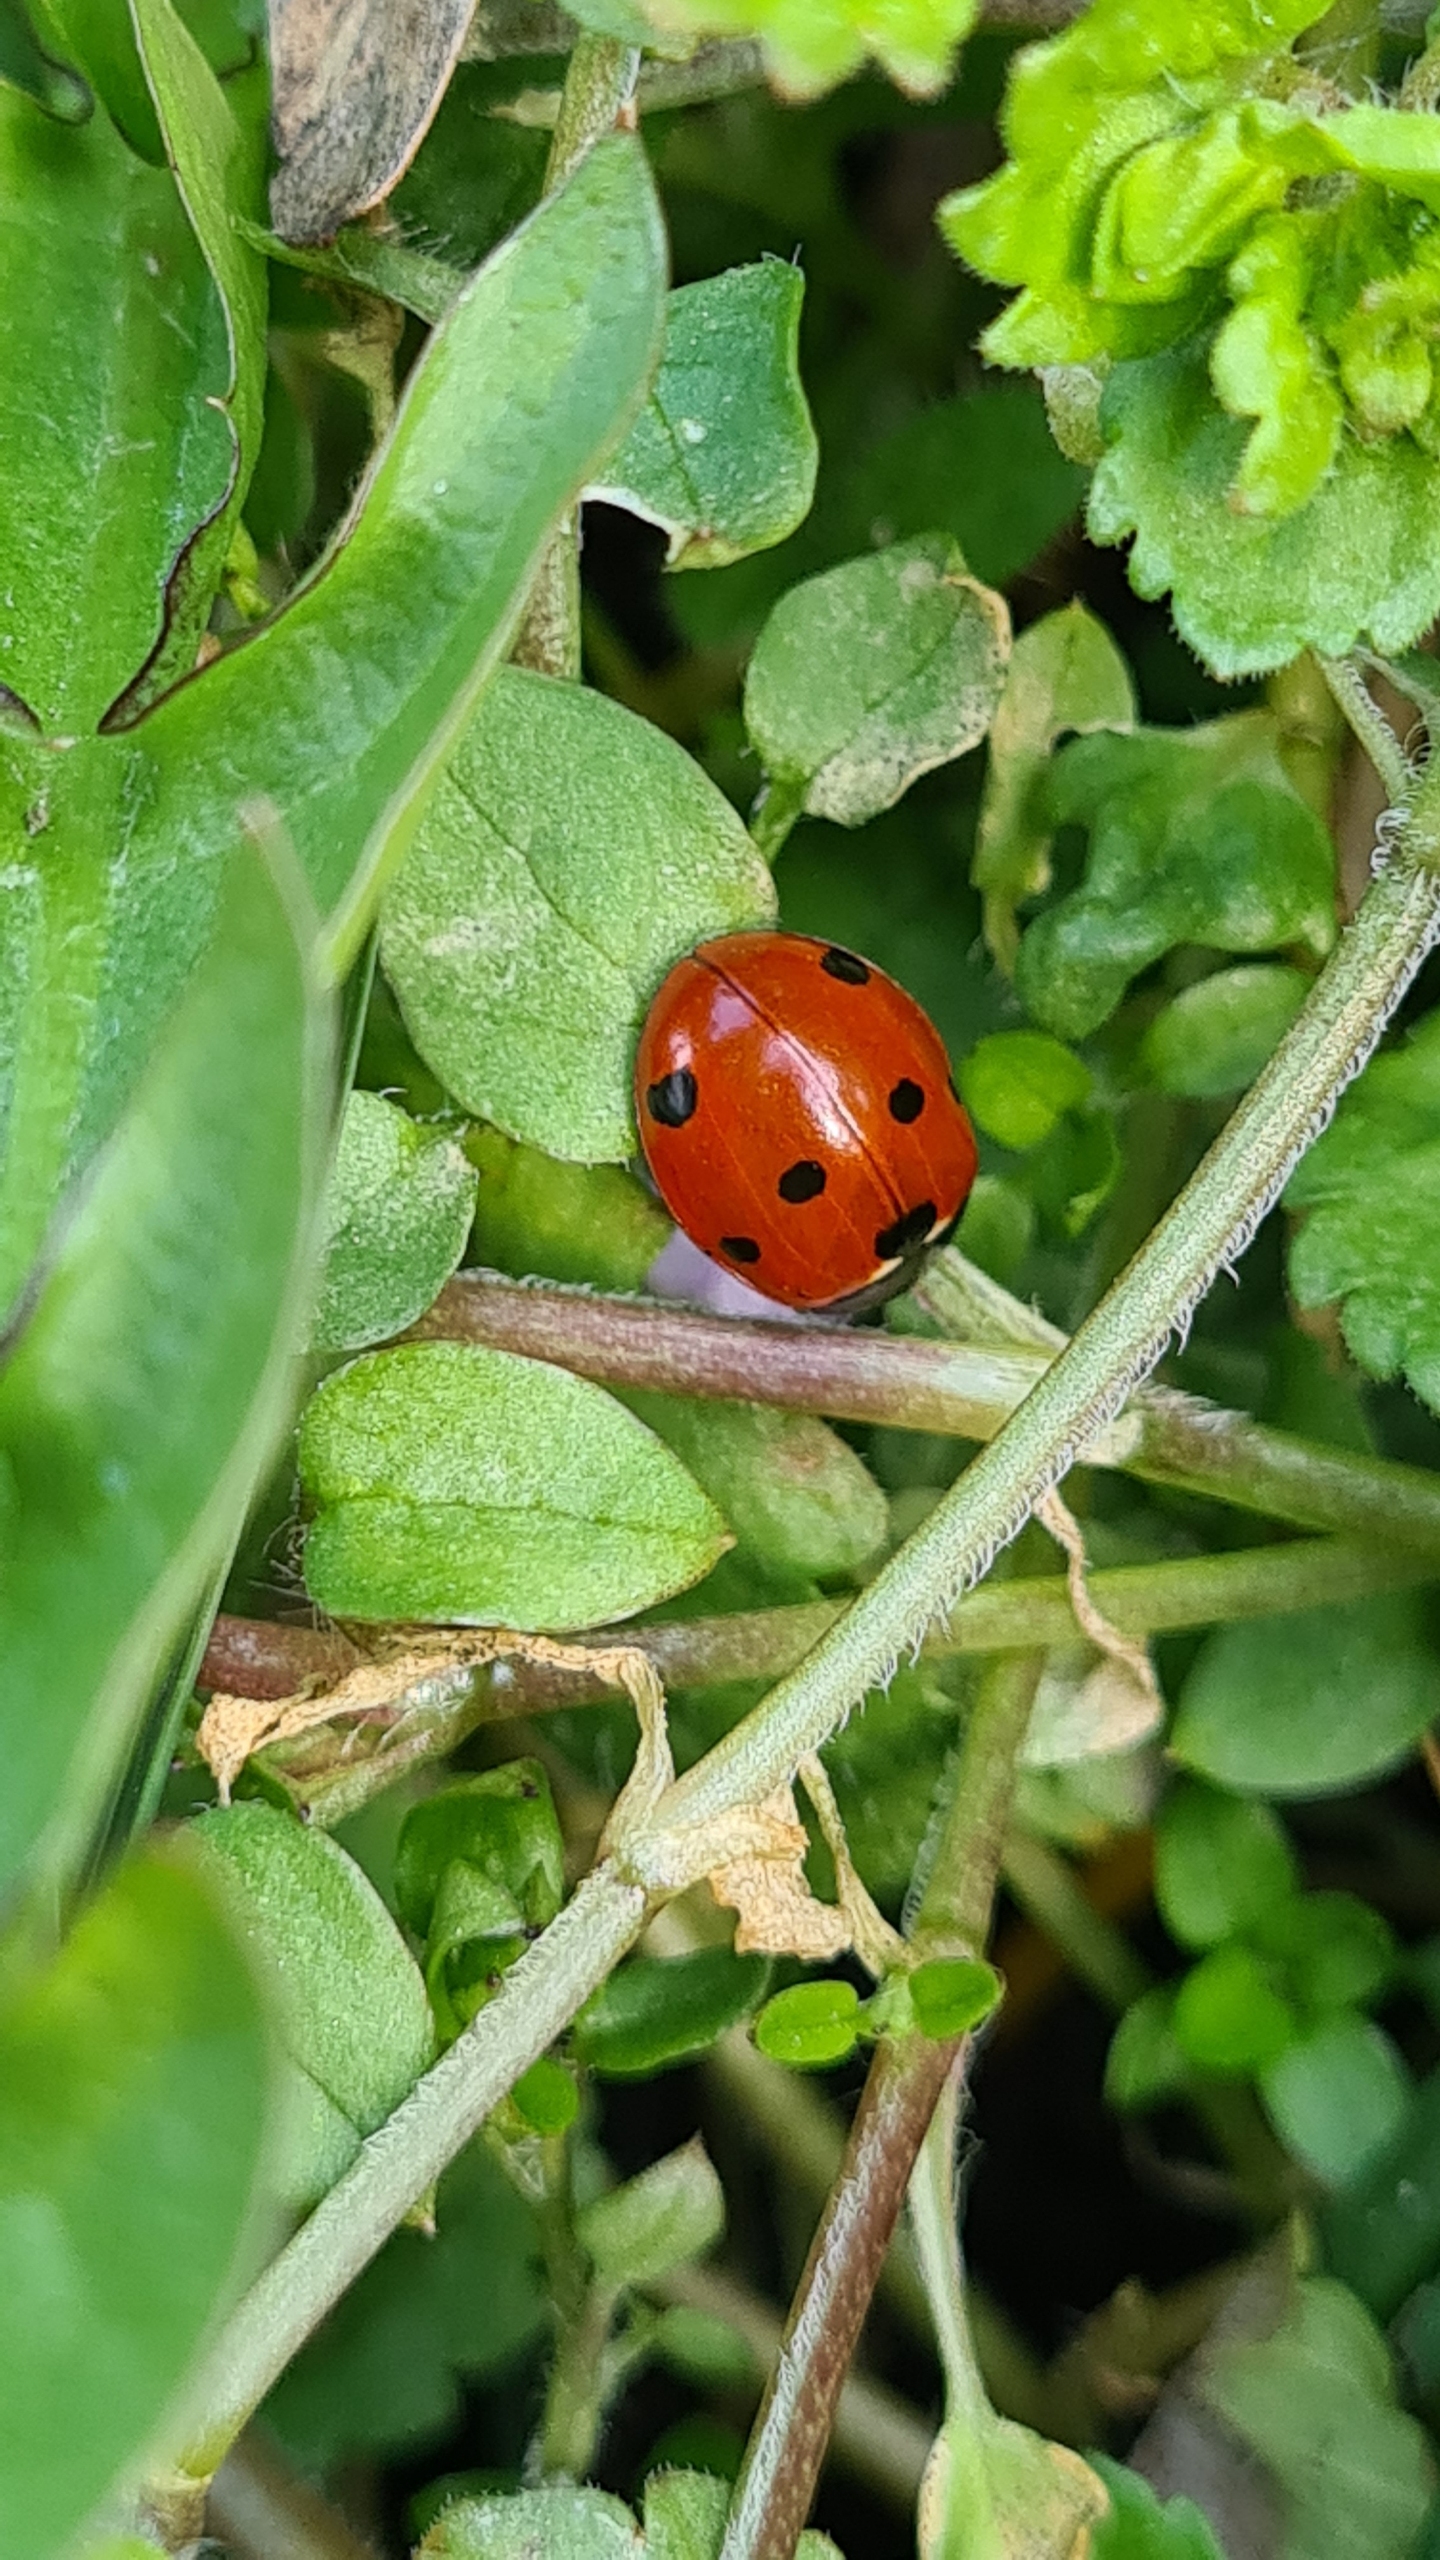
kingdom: Animalia
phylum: Arthropoda
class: Insecta
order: Coleoptera
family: Coccinellidae
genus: Coccinella
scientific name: Coccinella septempunctata
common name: Syvplettet mariehøne
